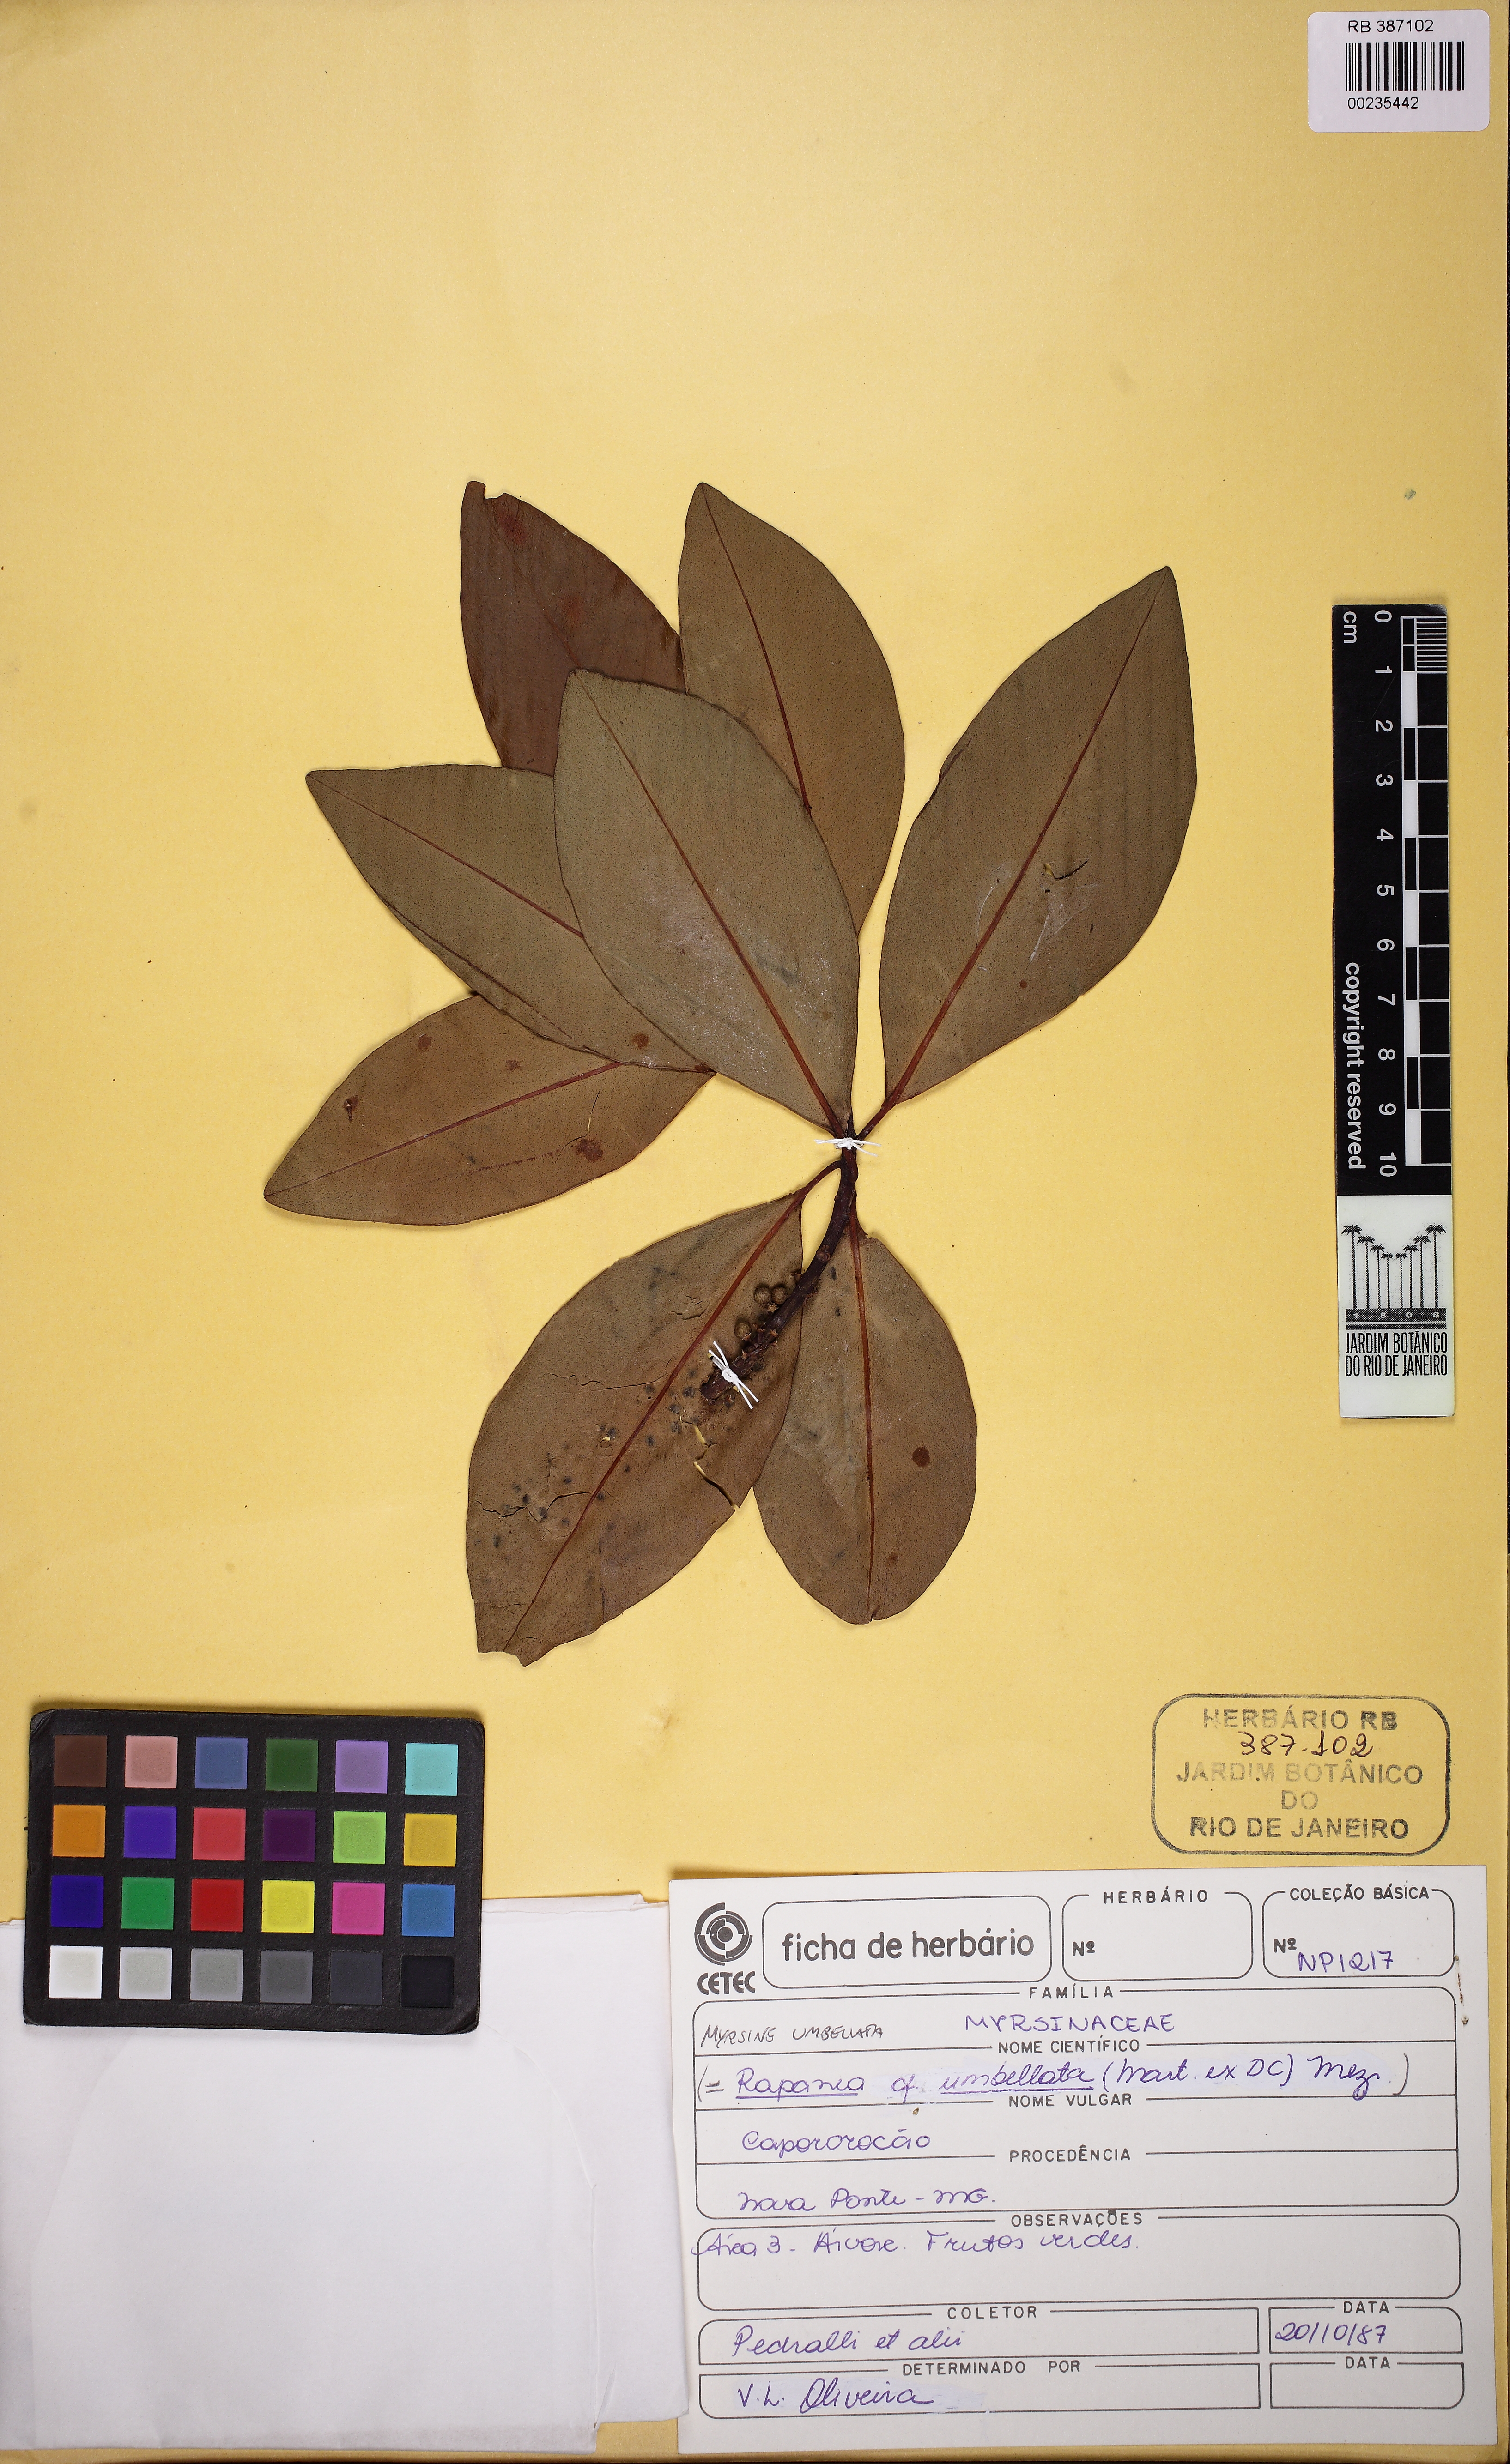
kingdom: Plantae
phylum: Tracheophyta
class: Magnoliopsida
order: Ericales
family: Primulaceae
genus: Myrsine
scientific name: Myrsine umbellata
